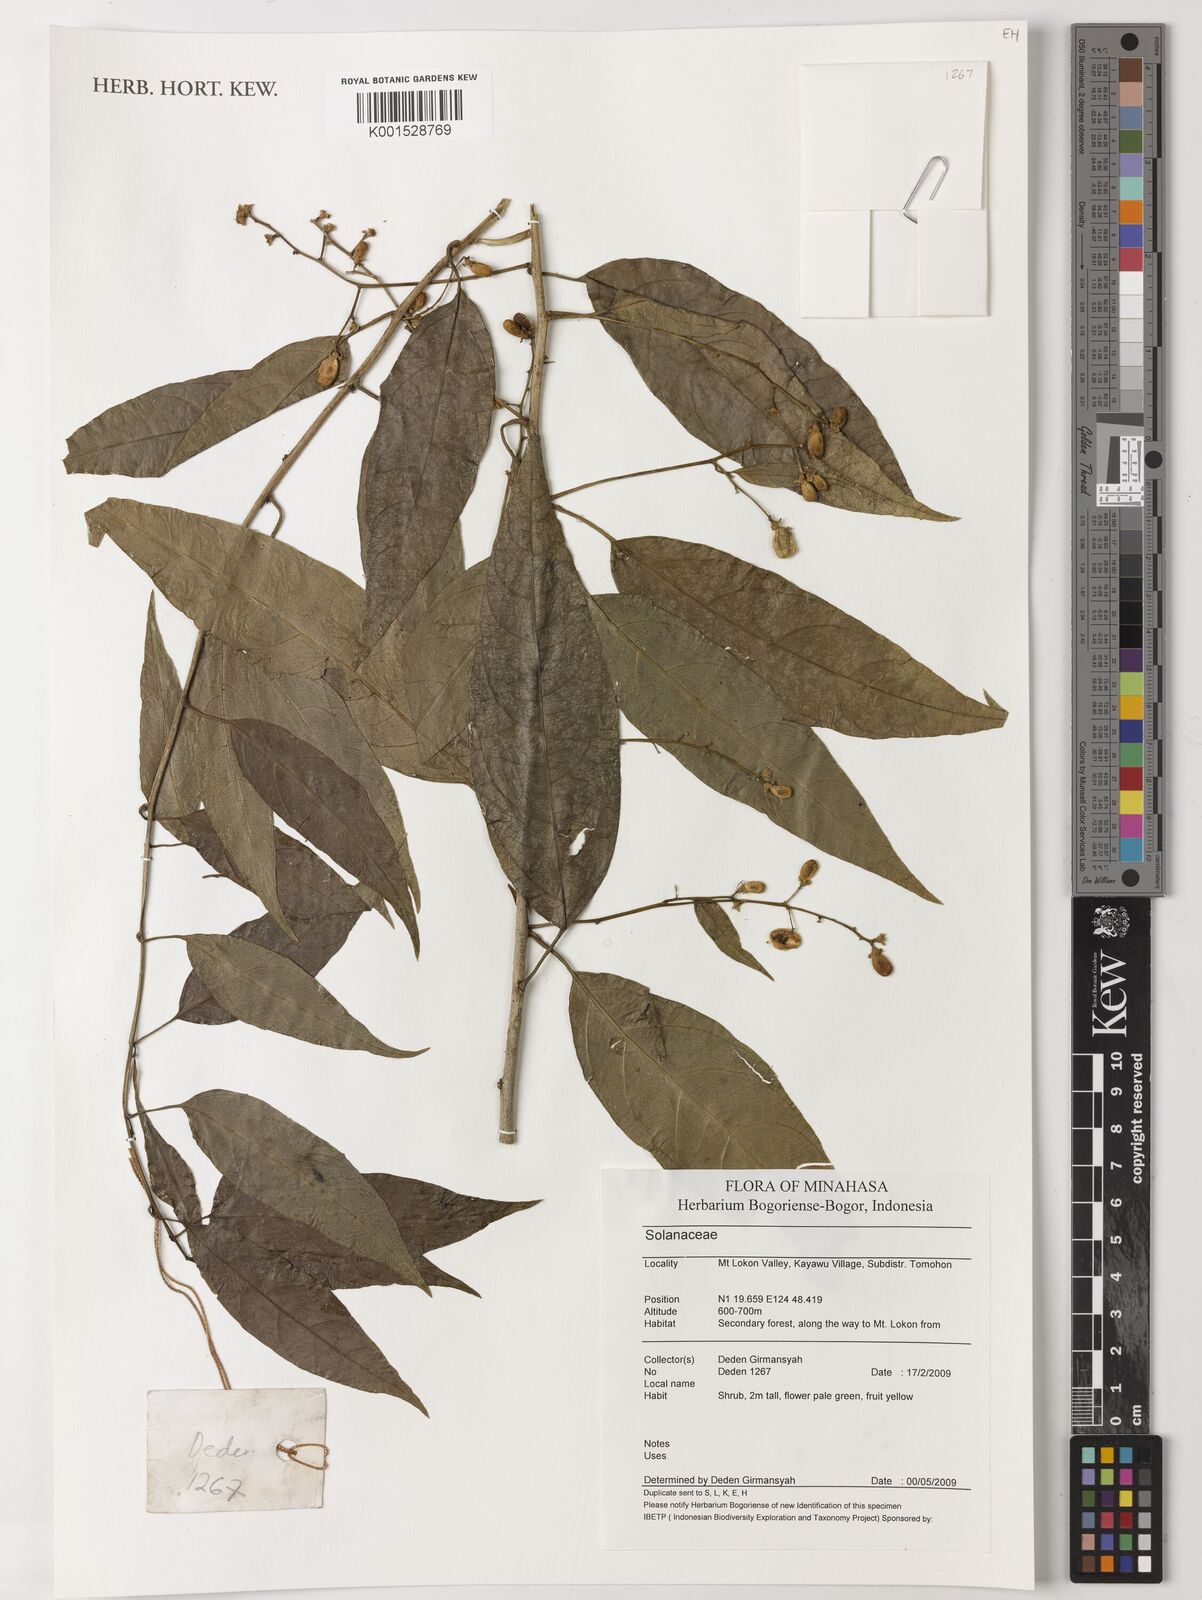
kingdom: Plantae
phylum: Tracheophyta
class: Magnoliopsida
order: Solanales
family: Solanaceae
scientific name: Solanaceae
